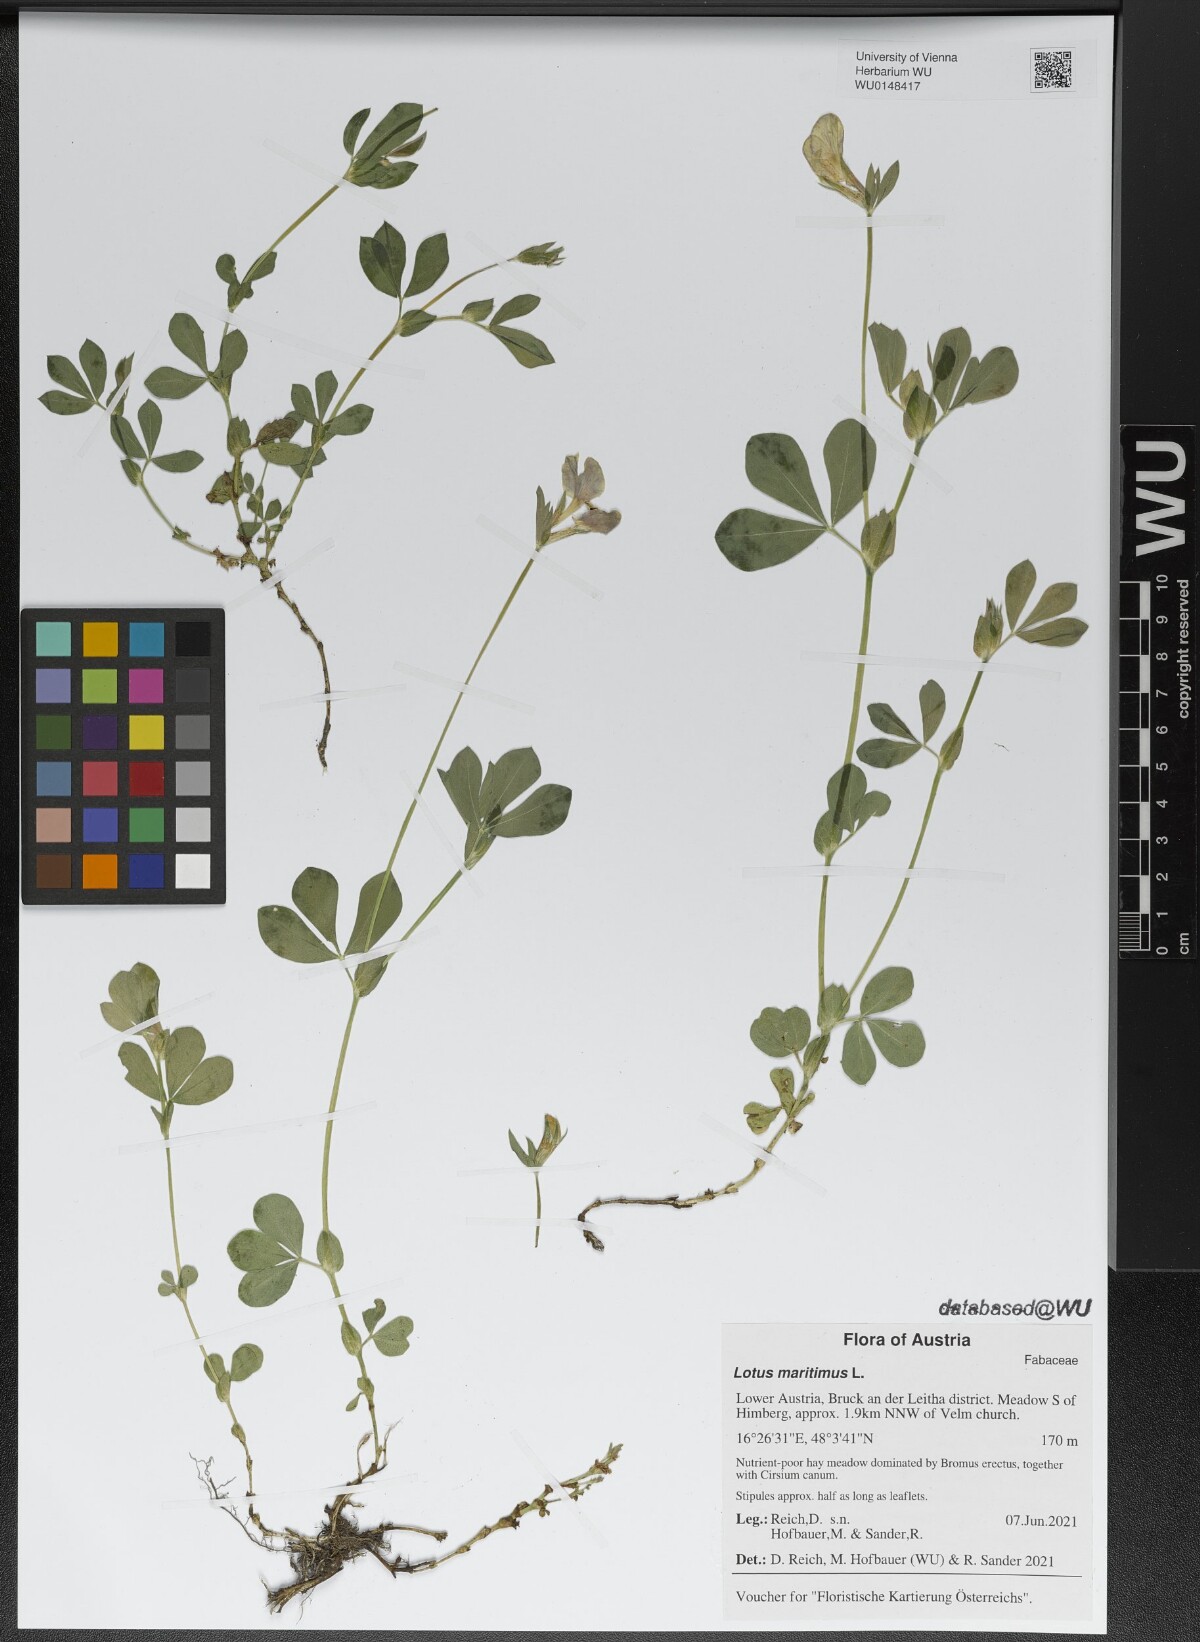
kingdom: Plantae
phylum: Tracheophyta
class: Magnoliopsida
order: Fabales
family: Fabaceae
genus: Lotus
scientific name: Lotus maritimus
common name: Dragon's-teeth
